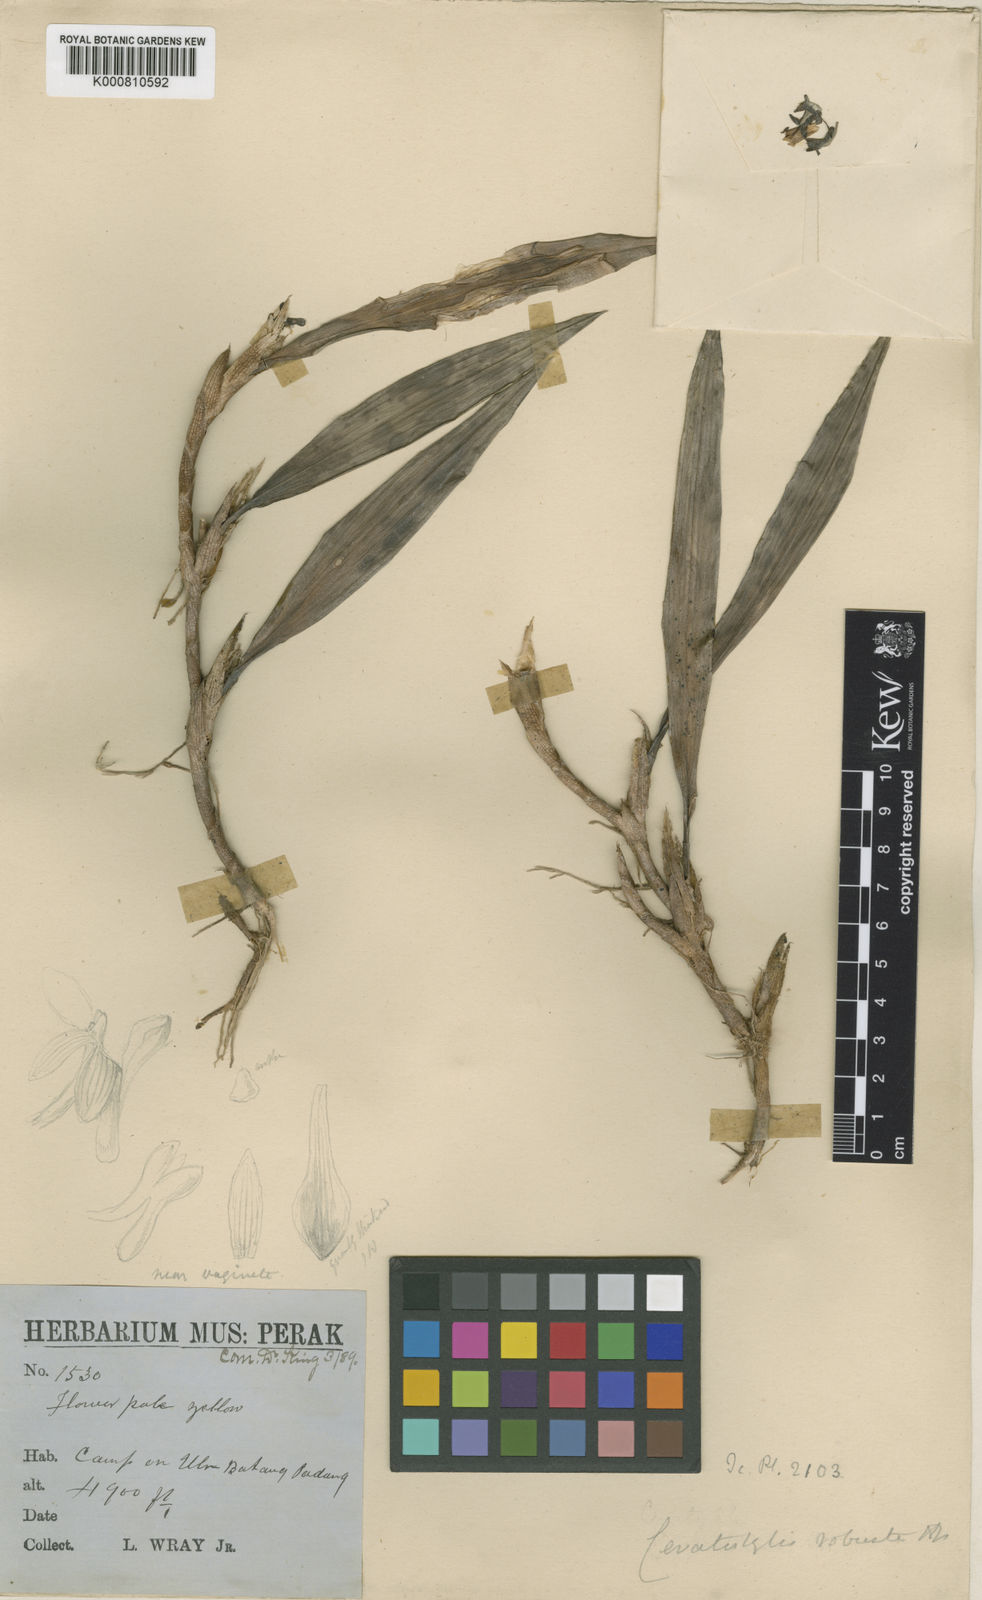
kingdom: Plantae
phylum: Tracheophyta
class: Liliopsida
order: Asparagales
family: Orchidaceae
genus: Ceratostylis
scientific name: Ceratostylis robusta
